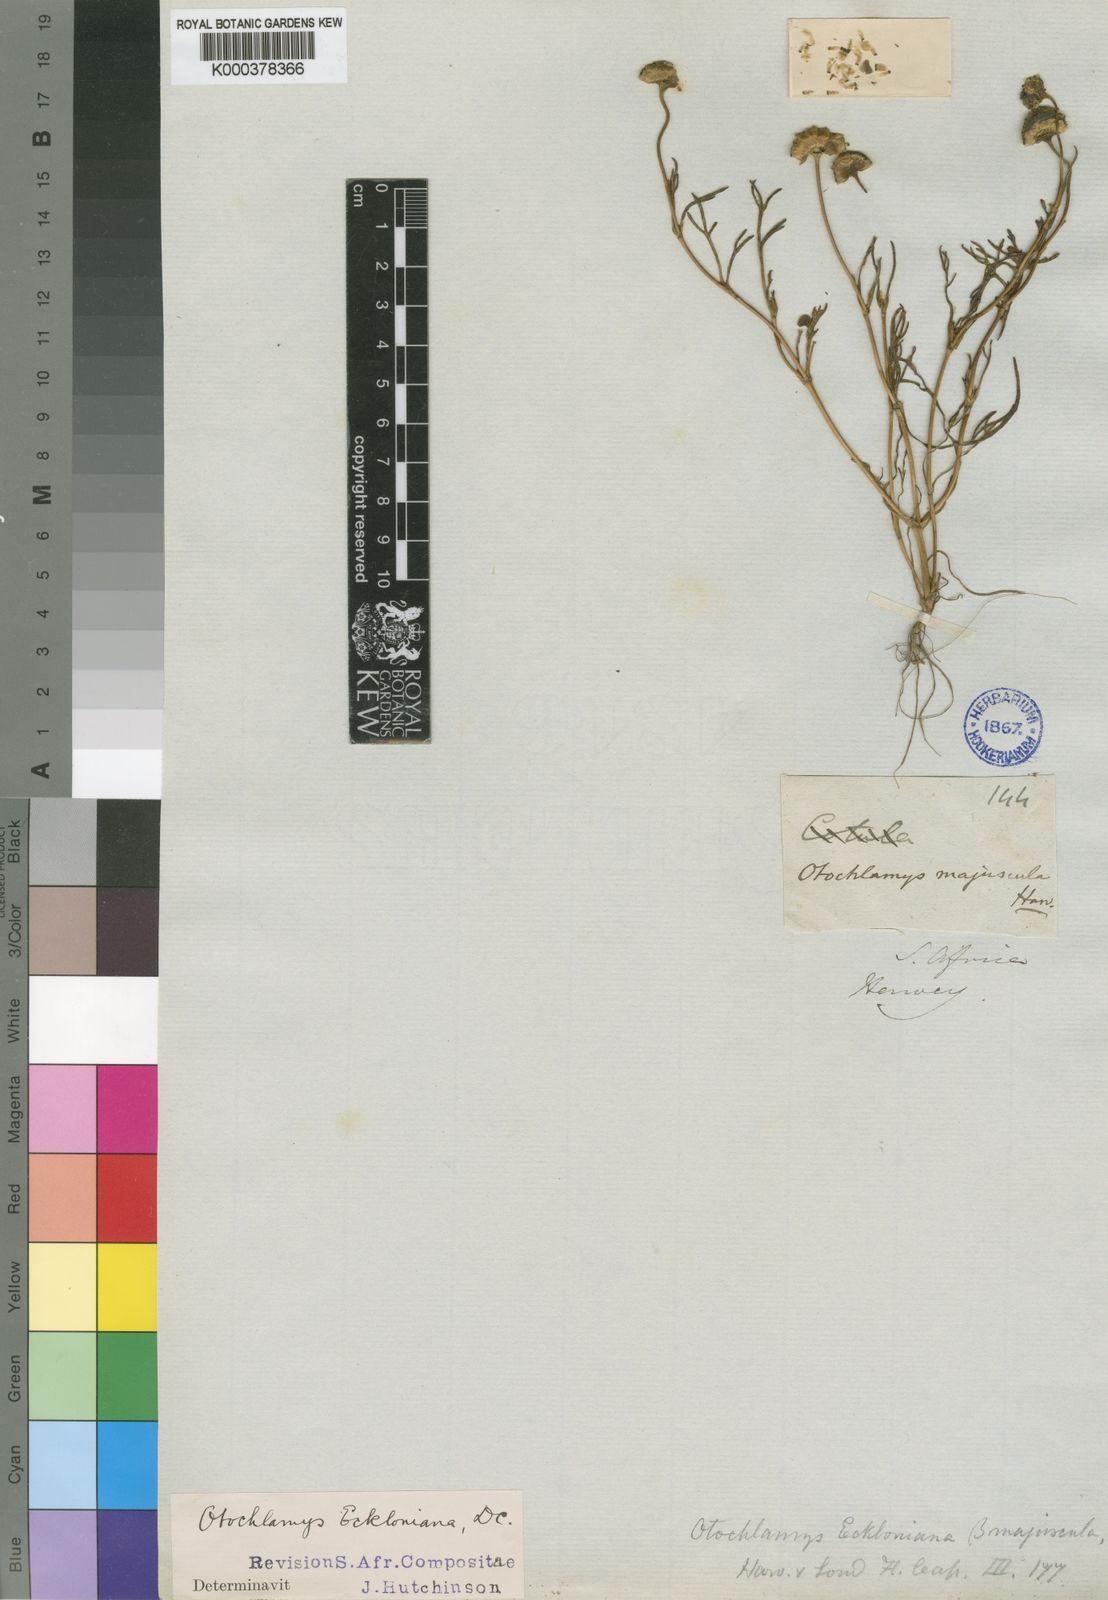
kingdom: Plantae
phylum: Tracheophyta
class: Magnoliopsida
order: Asterales
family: Asteraceae
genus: Cotula
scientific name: Cotula eckloniana
